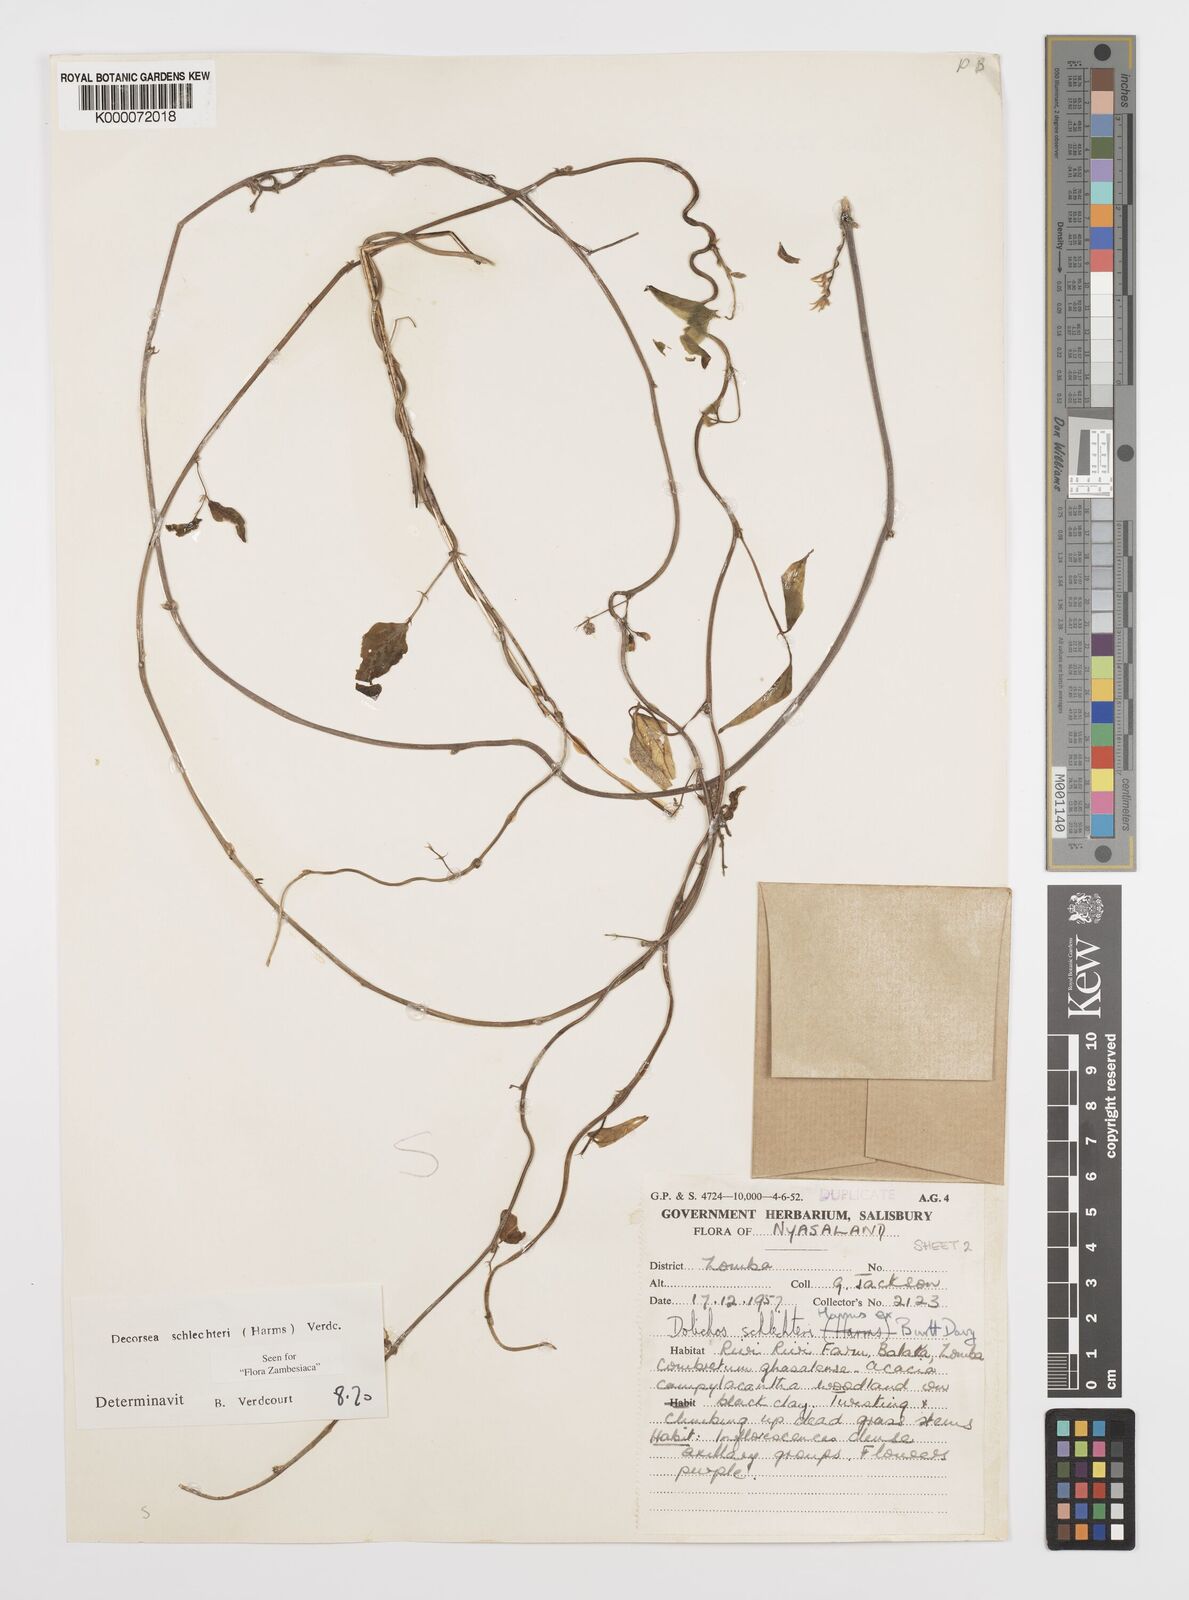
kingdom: Plantae
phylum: Tracheophyta
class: Magnoliopsida
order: Fabales
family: Fabaceae
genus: Decorsea
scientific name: Decorsea schlechteri
